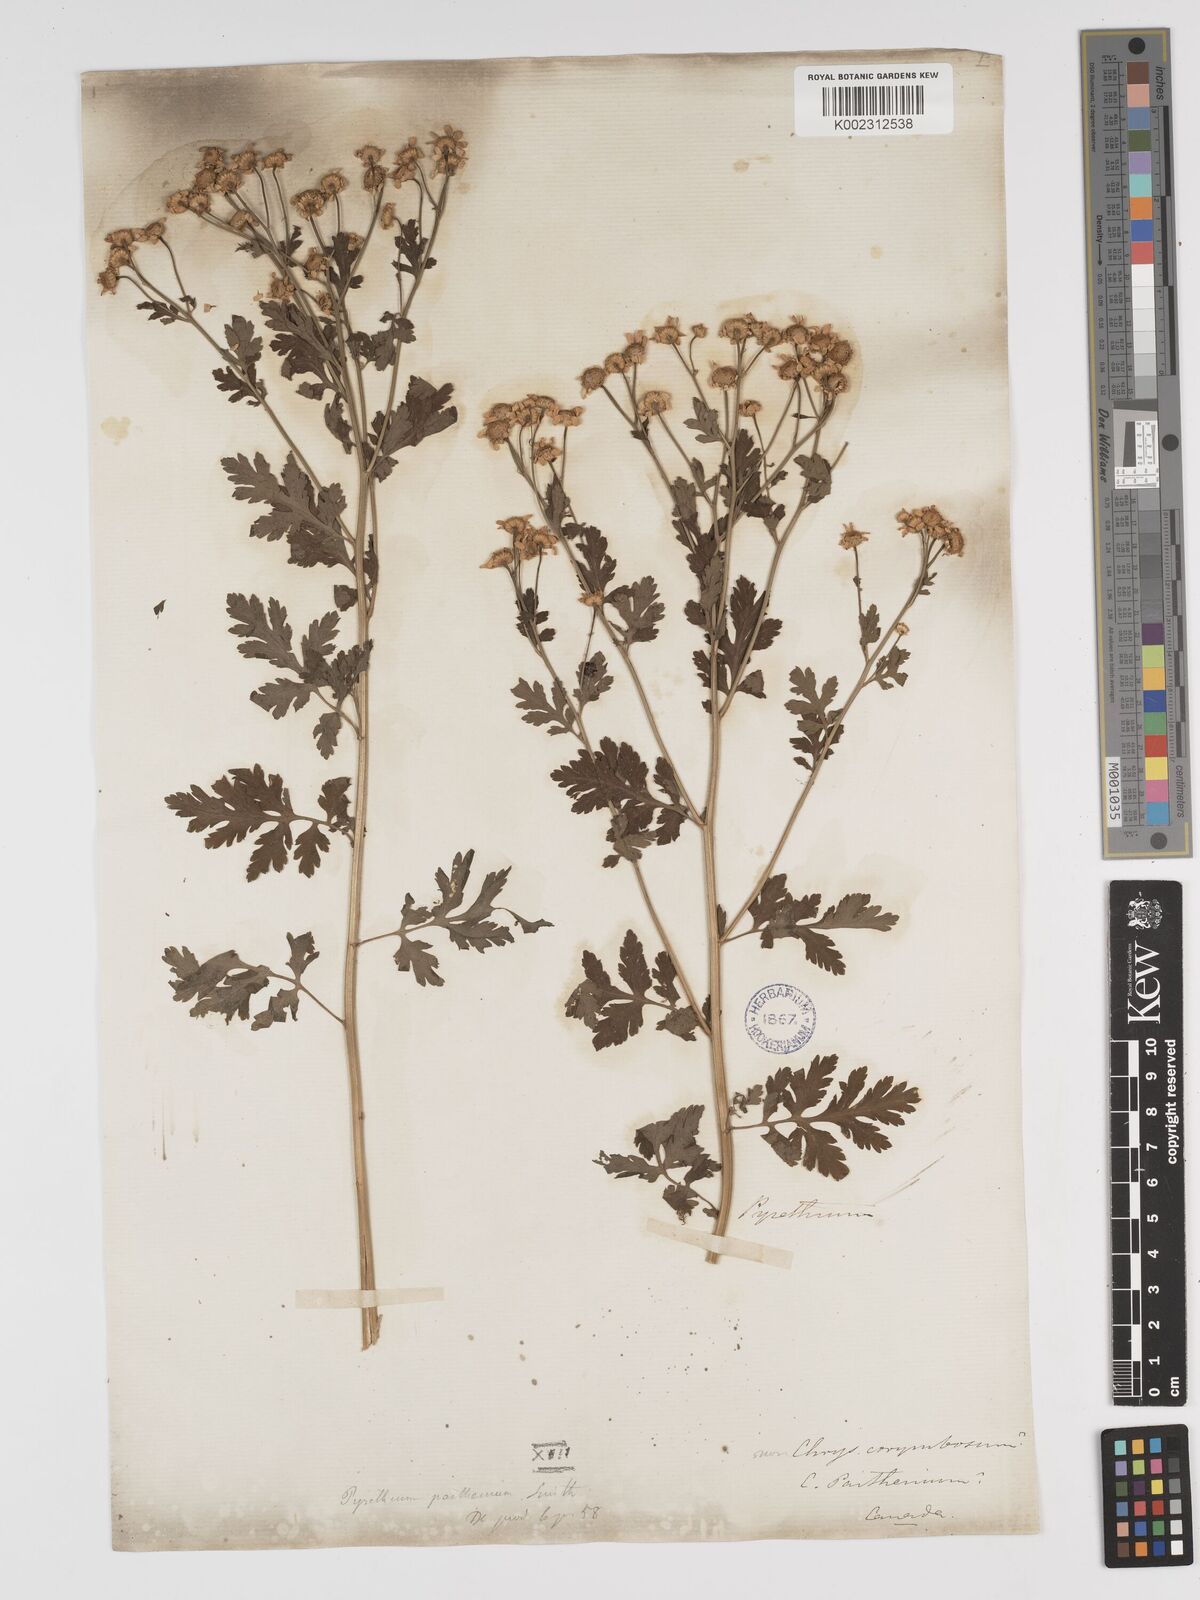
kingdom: Plantae
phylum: Tracheophyta
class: Magnoliopsida
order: Asterales
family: Asteraceae
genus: Tanacetum
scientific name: Tanacetum parthenium
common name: Feverfew
